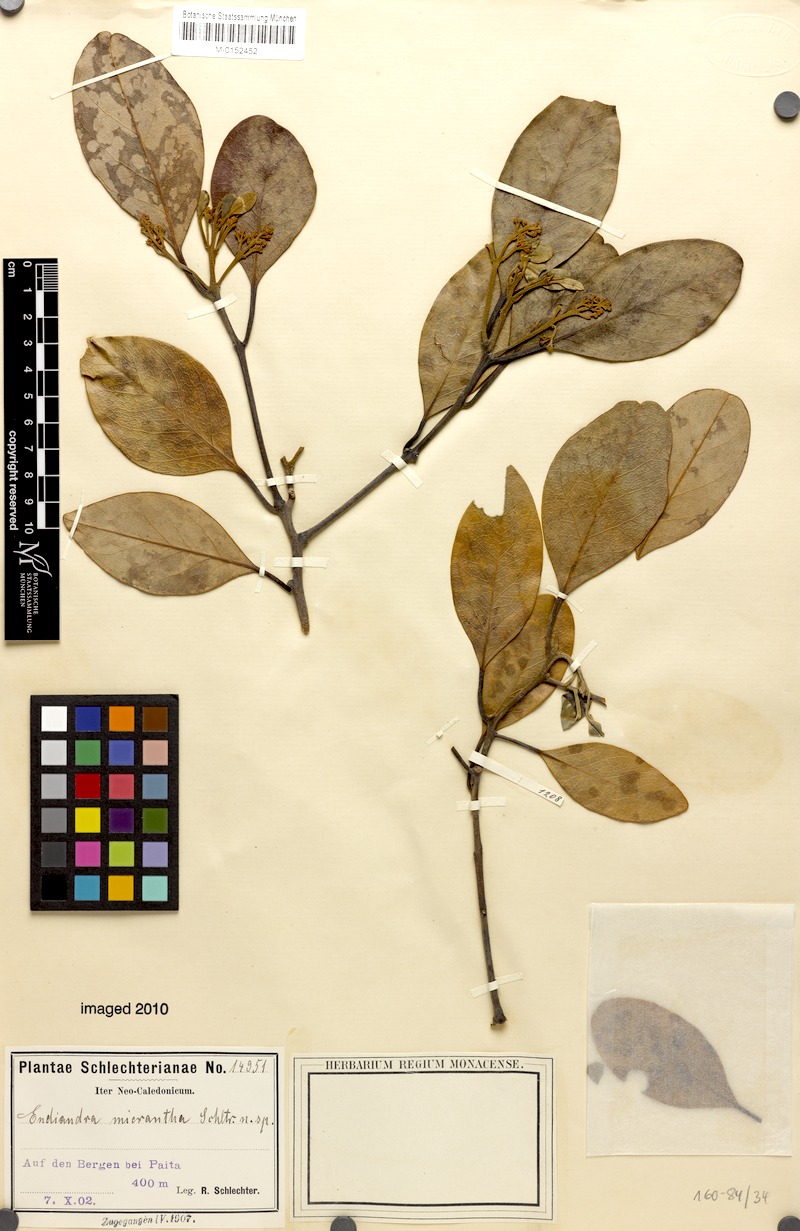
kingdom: Plantae
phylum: Tracheophyta
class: Magnoliopsida
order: Laurales
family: Lauraceae
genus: Endiandra
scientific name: Endiandra baillonii
